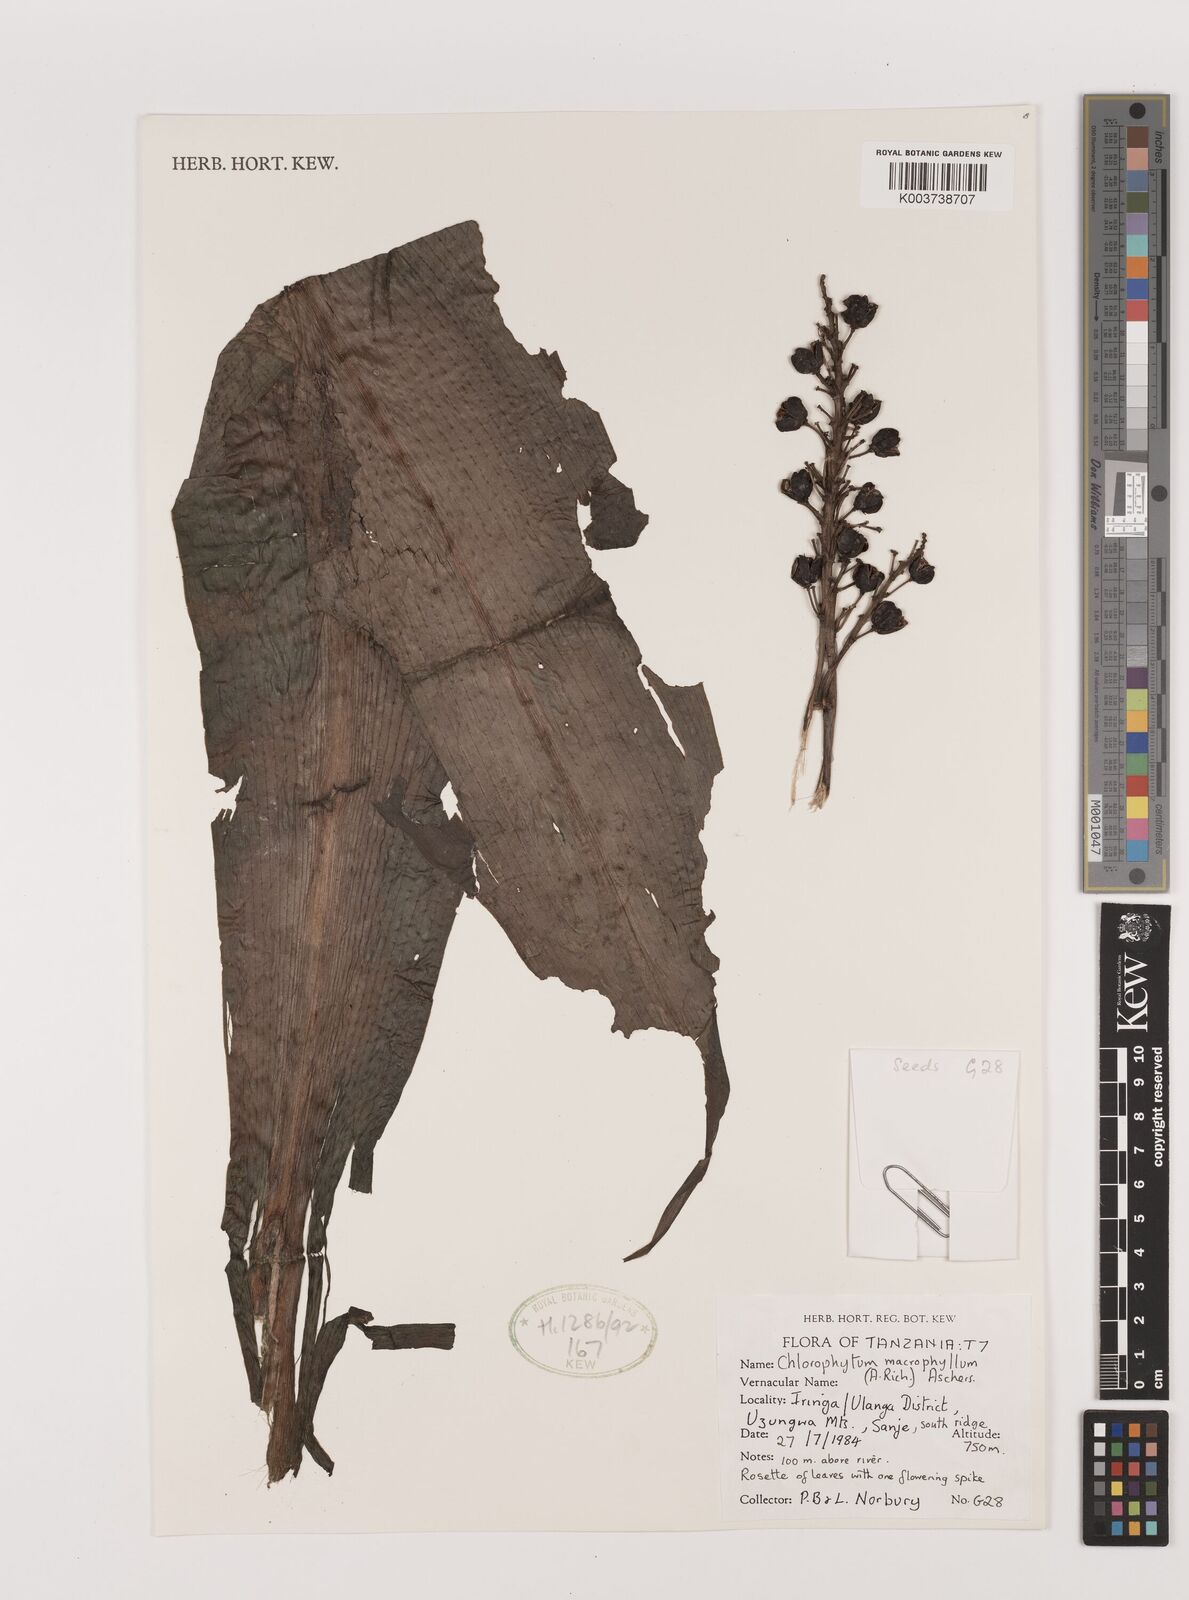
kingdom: Plantae
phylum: Tracheophyta
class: Liliopsida
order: Asparagales
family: Asparagaceae
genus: Chlorophytum
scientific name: Chlorophytum macrophyllum
